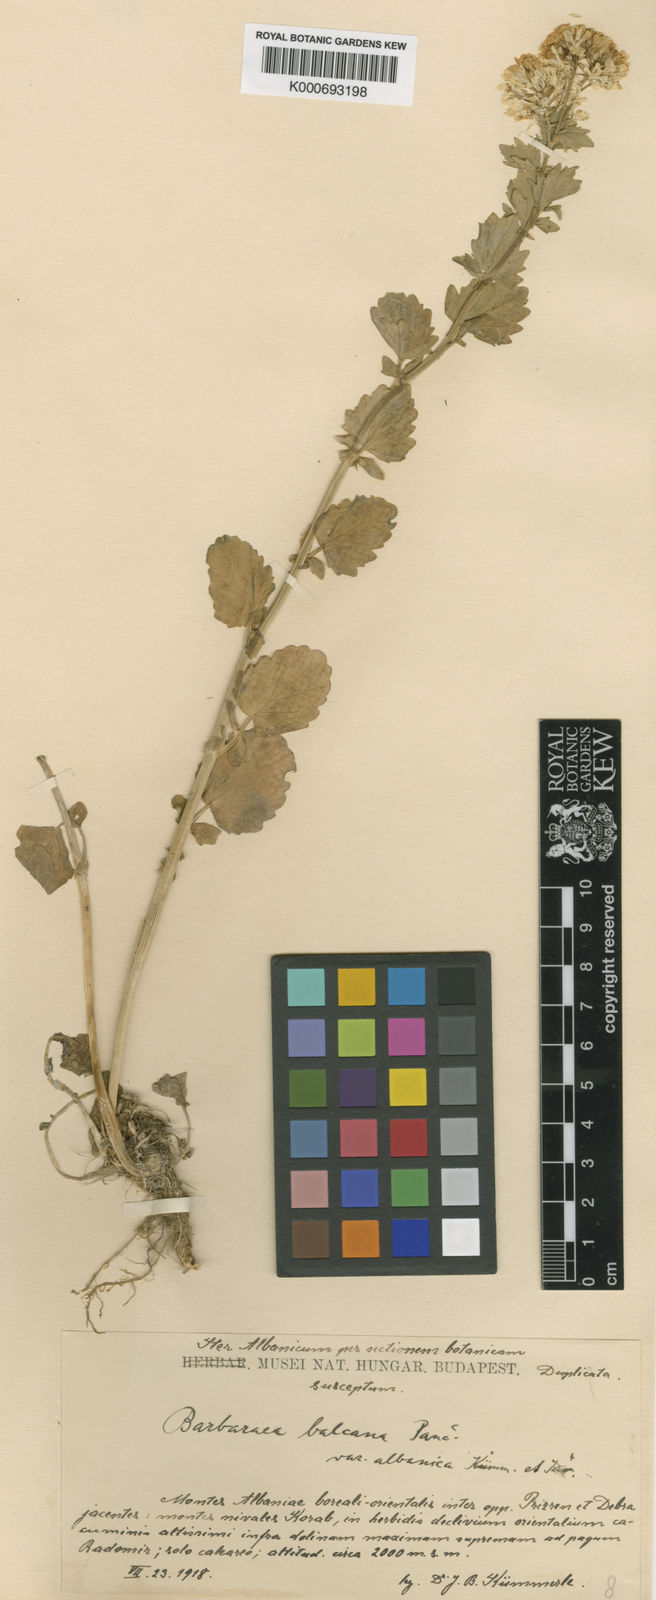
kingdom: Plantae
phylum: Tracheophyta
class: Magnoliopsida
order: Brassicales
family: Brassicaceae
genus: Barbarea
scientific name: Barbarea
